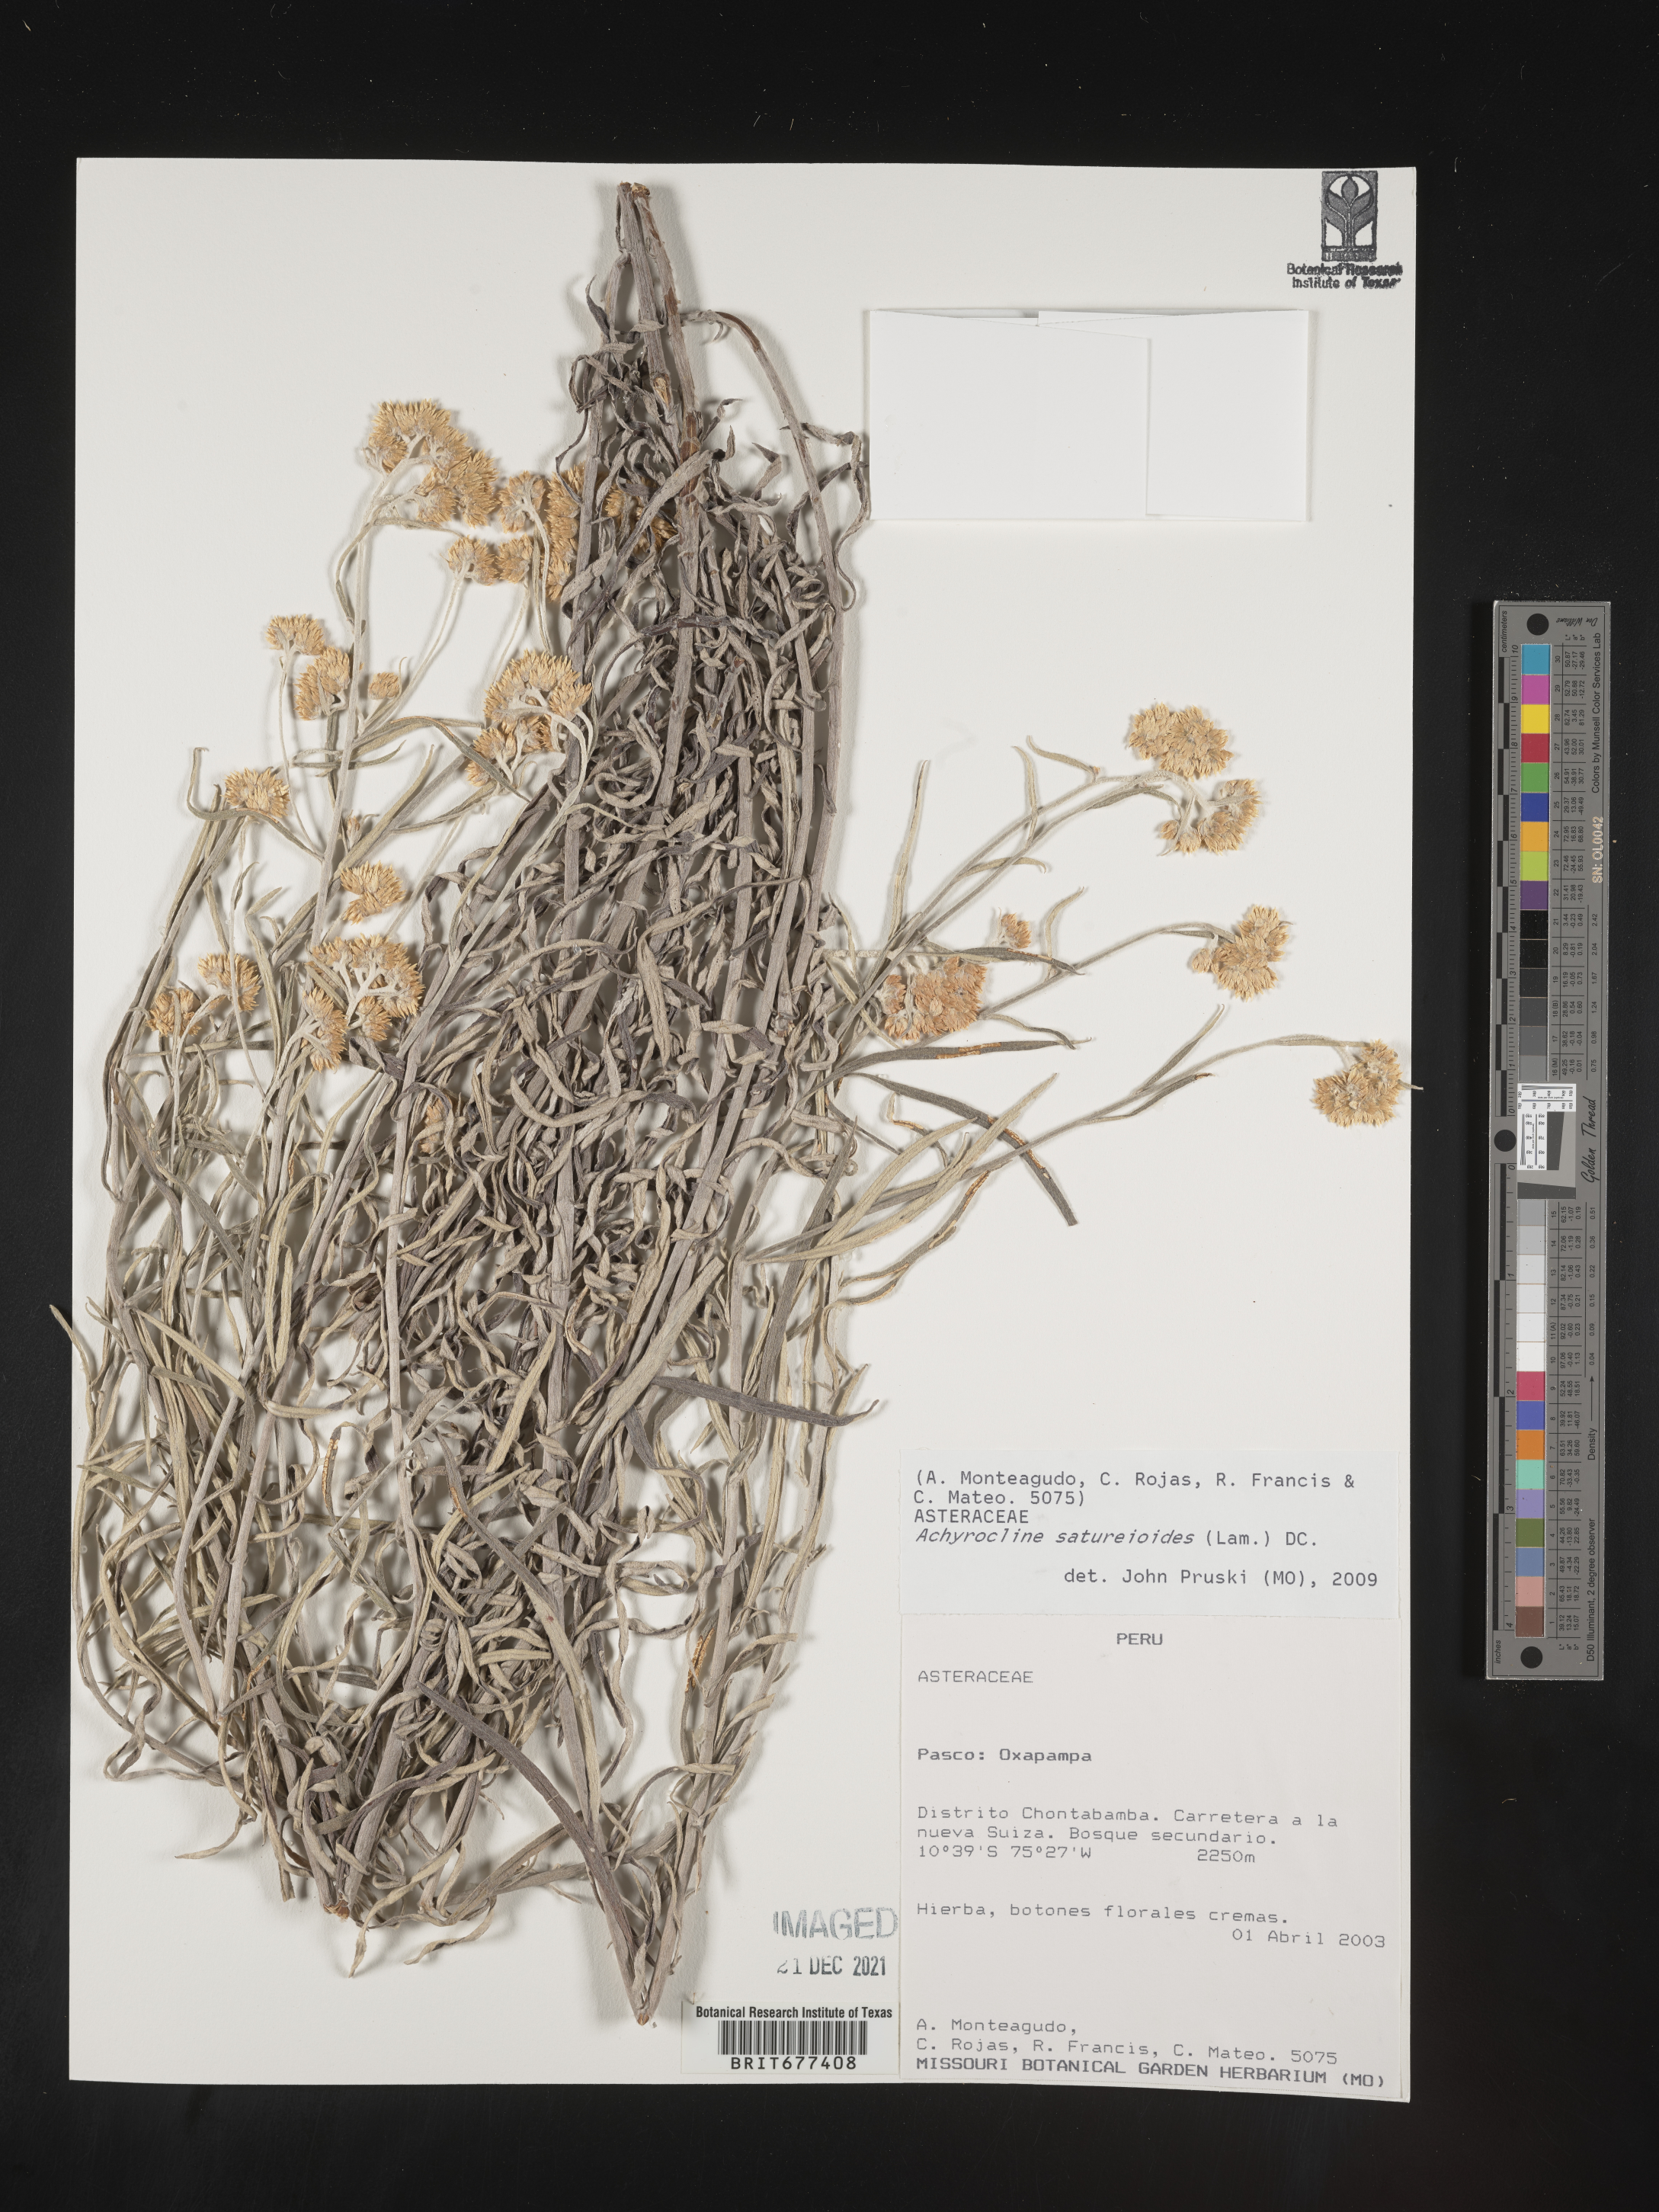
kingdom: Plantae
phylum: Tracheophyta
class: Magnoliopsida
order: Asterales
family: Asteraceae
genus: Achyrocline
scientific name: Achyrocline
